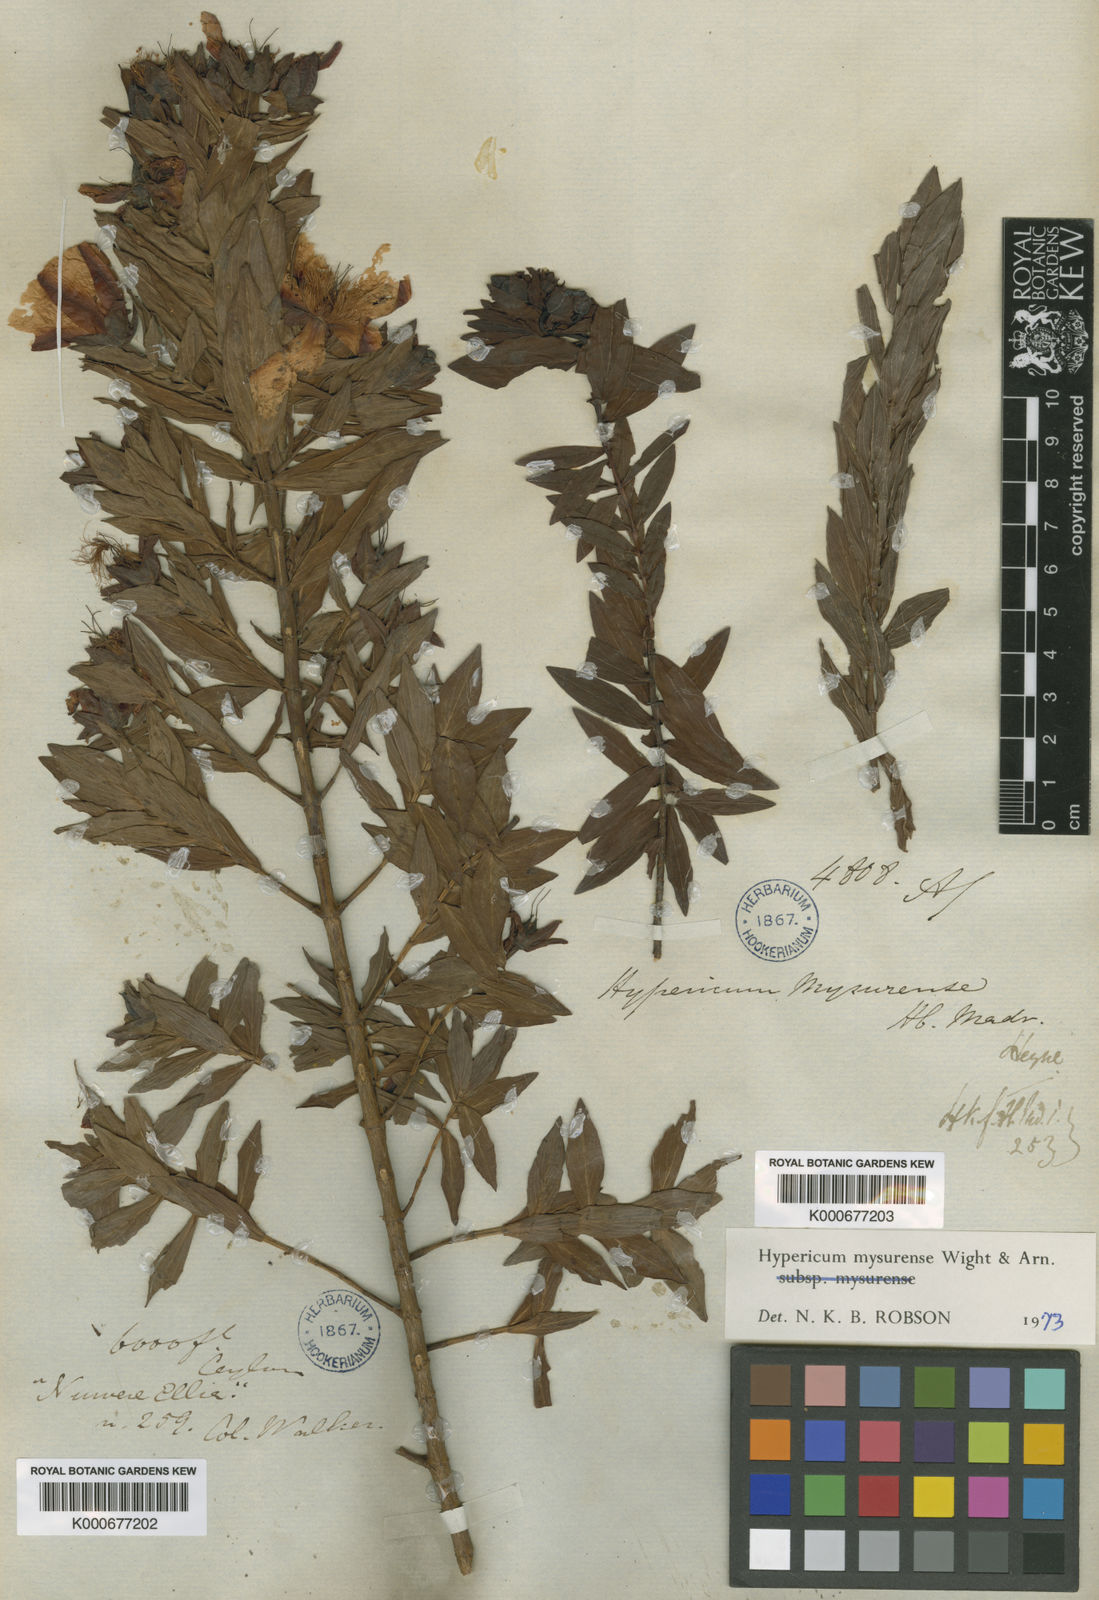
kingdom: Plantae
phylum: Tracheophyta
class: Magnoliopsida
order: Malpighiales
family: Hypericaceae
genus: Hypericum
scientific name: Hypericum
